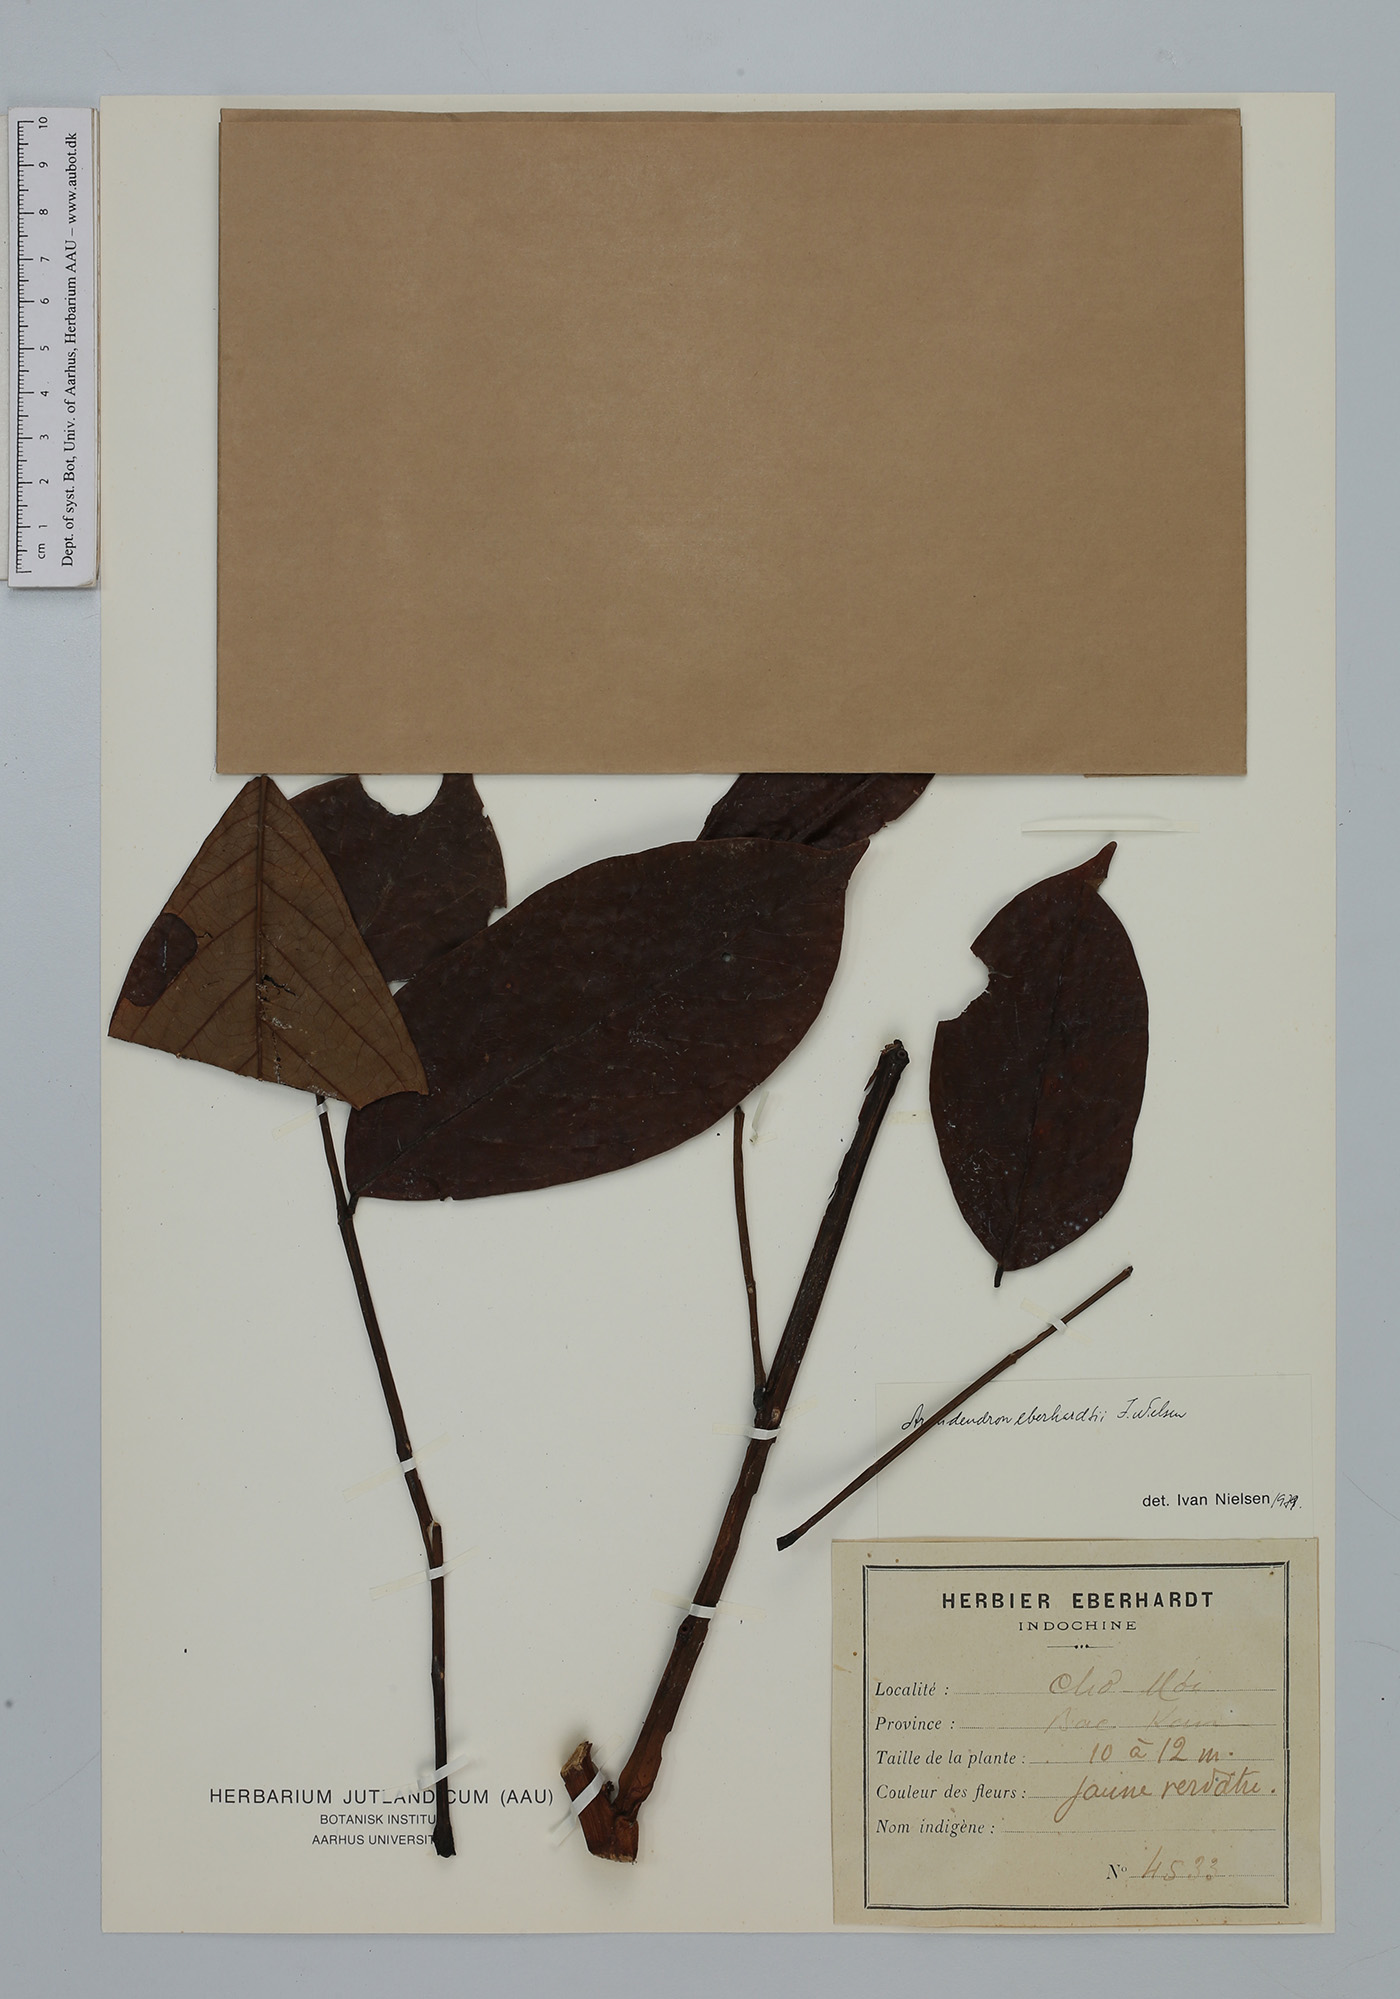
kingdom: Plantae
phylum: Tracheophyta
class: Magnoliopsida
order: Fabales
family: Fabaceae
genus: Archidendron
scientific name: Archidendron eberhardtii
